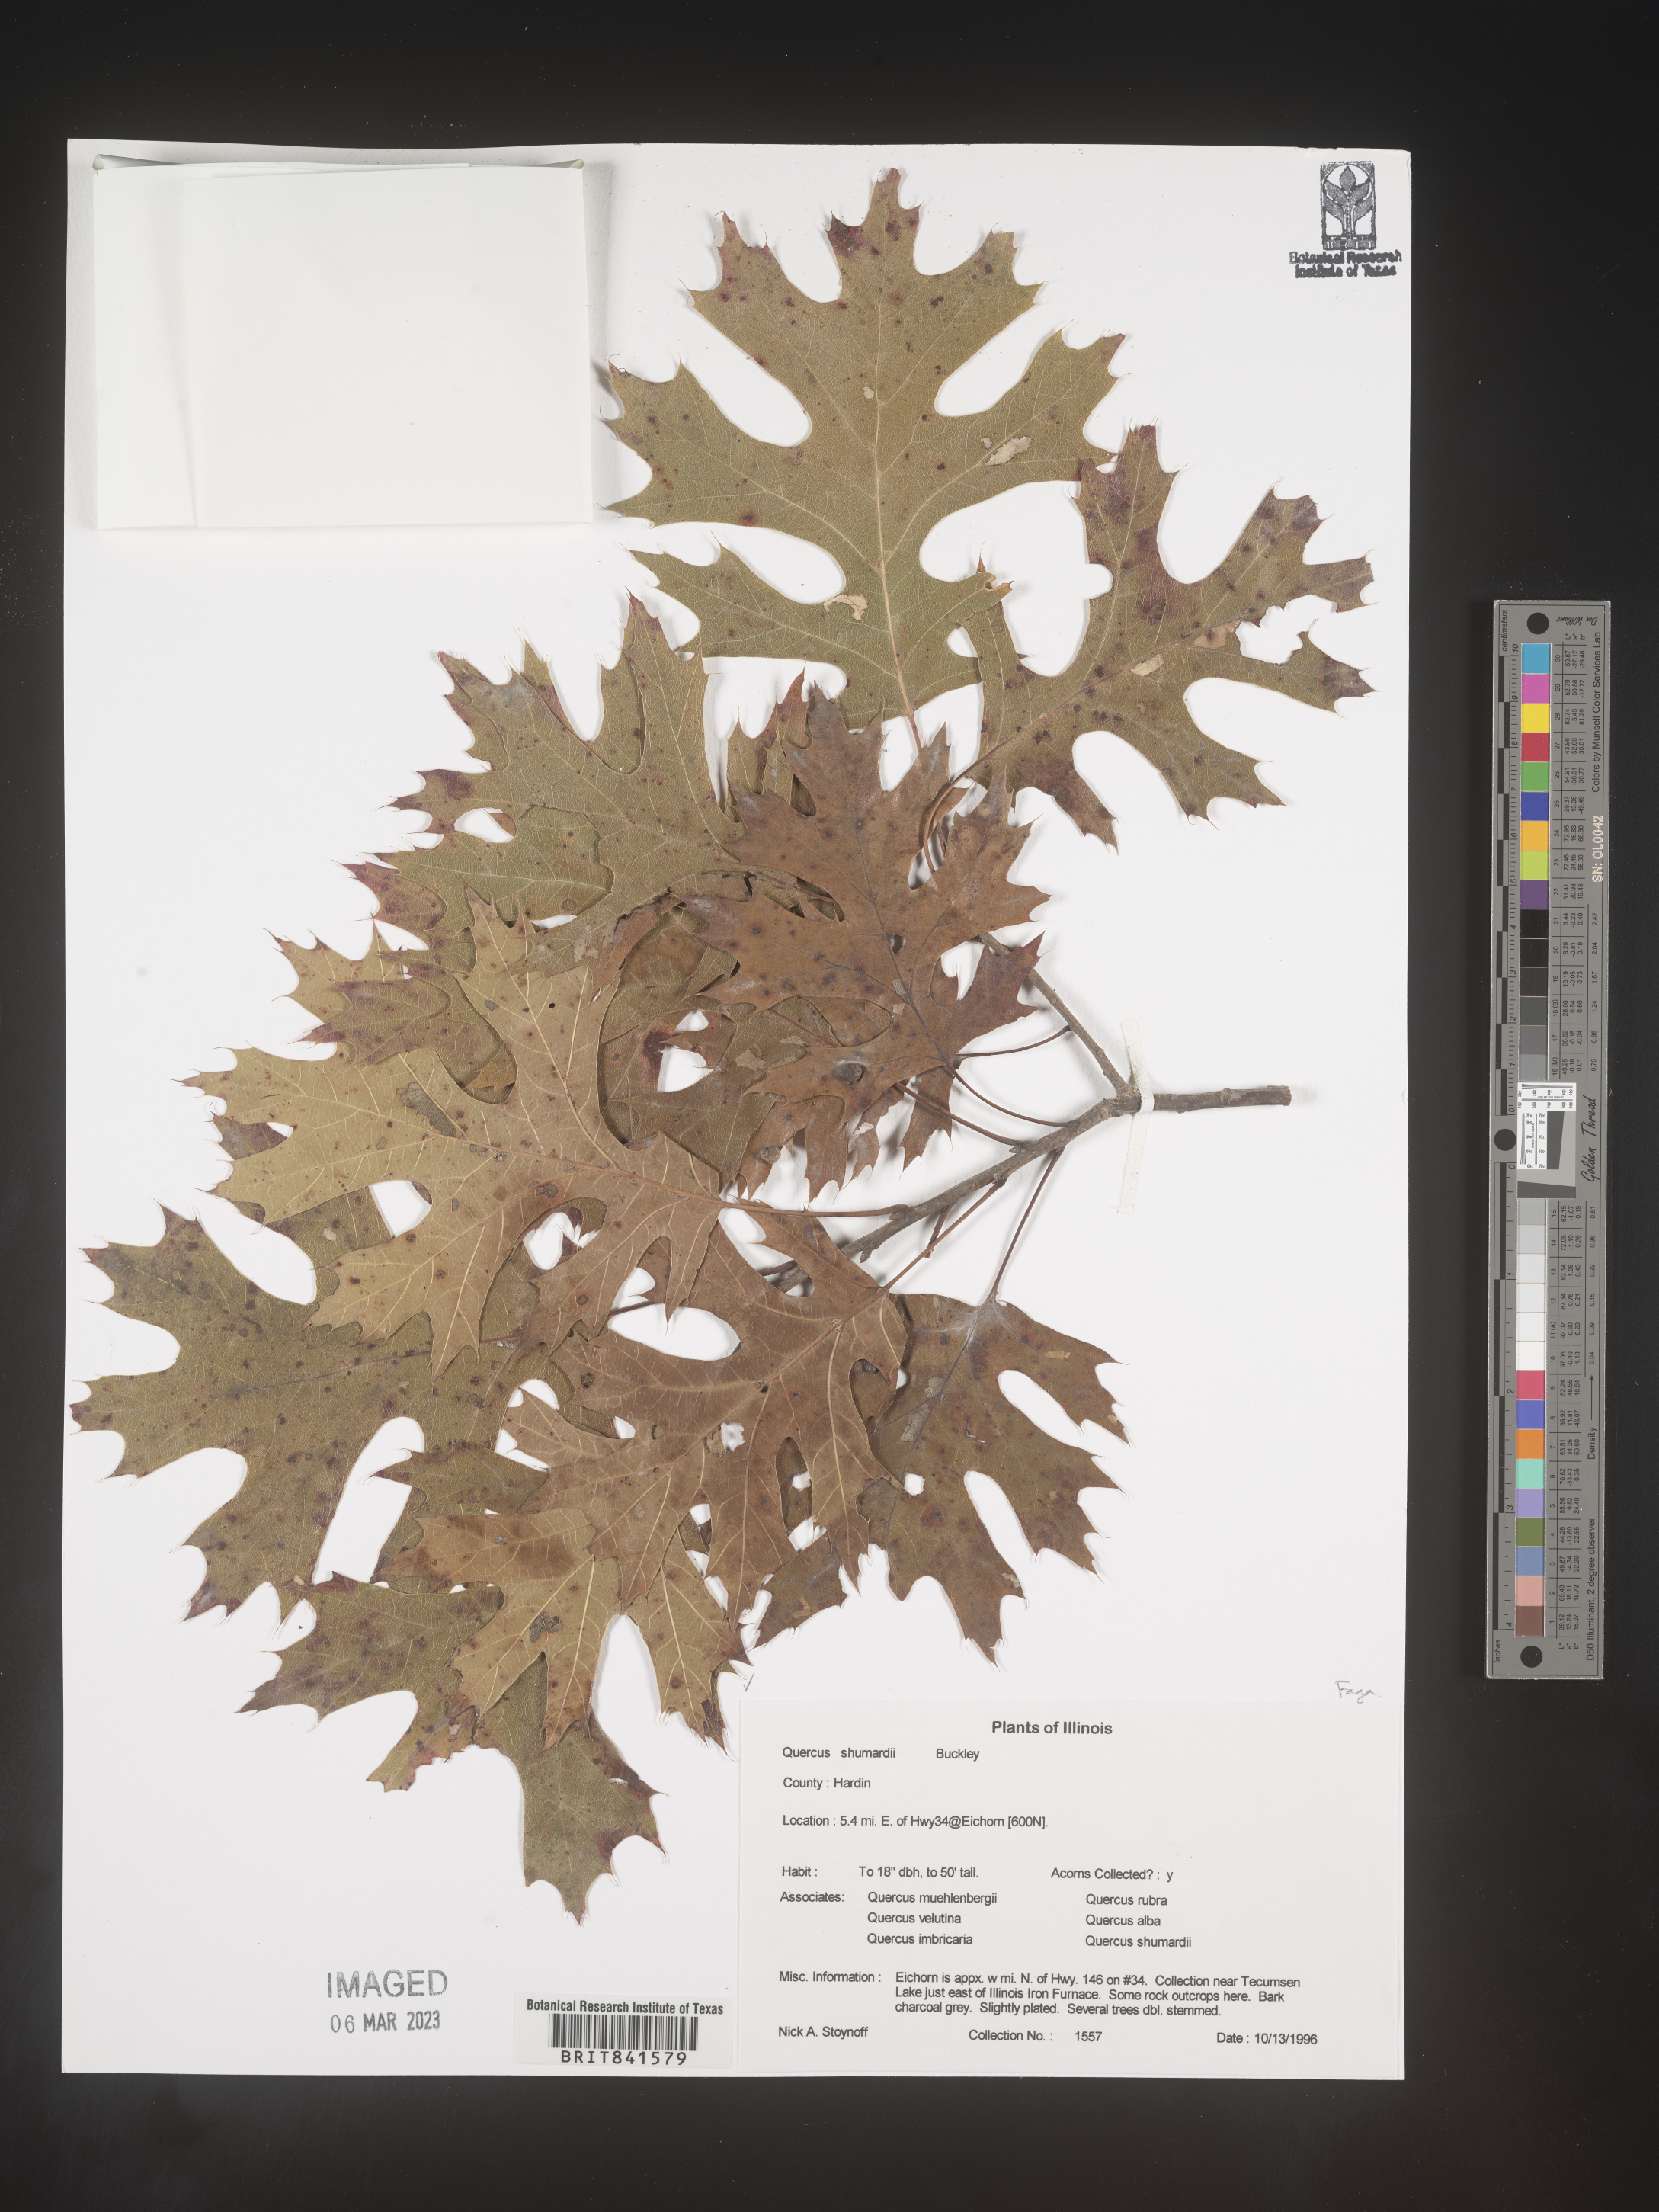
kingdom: Plantae
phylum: Tracheophyta
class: Magnoliopsida
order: Fagales
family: Fagaceae
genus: Quercus
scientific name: Quercus shumardii
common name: Shumard oak
